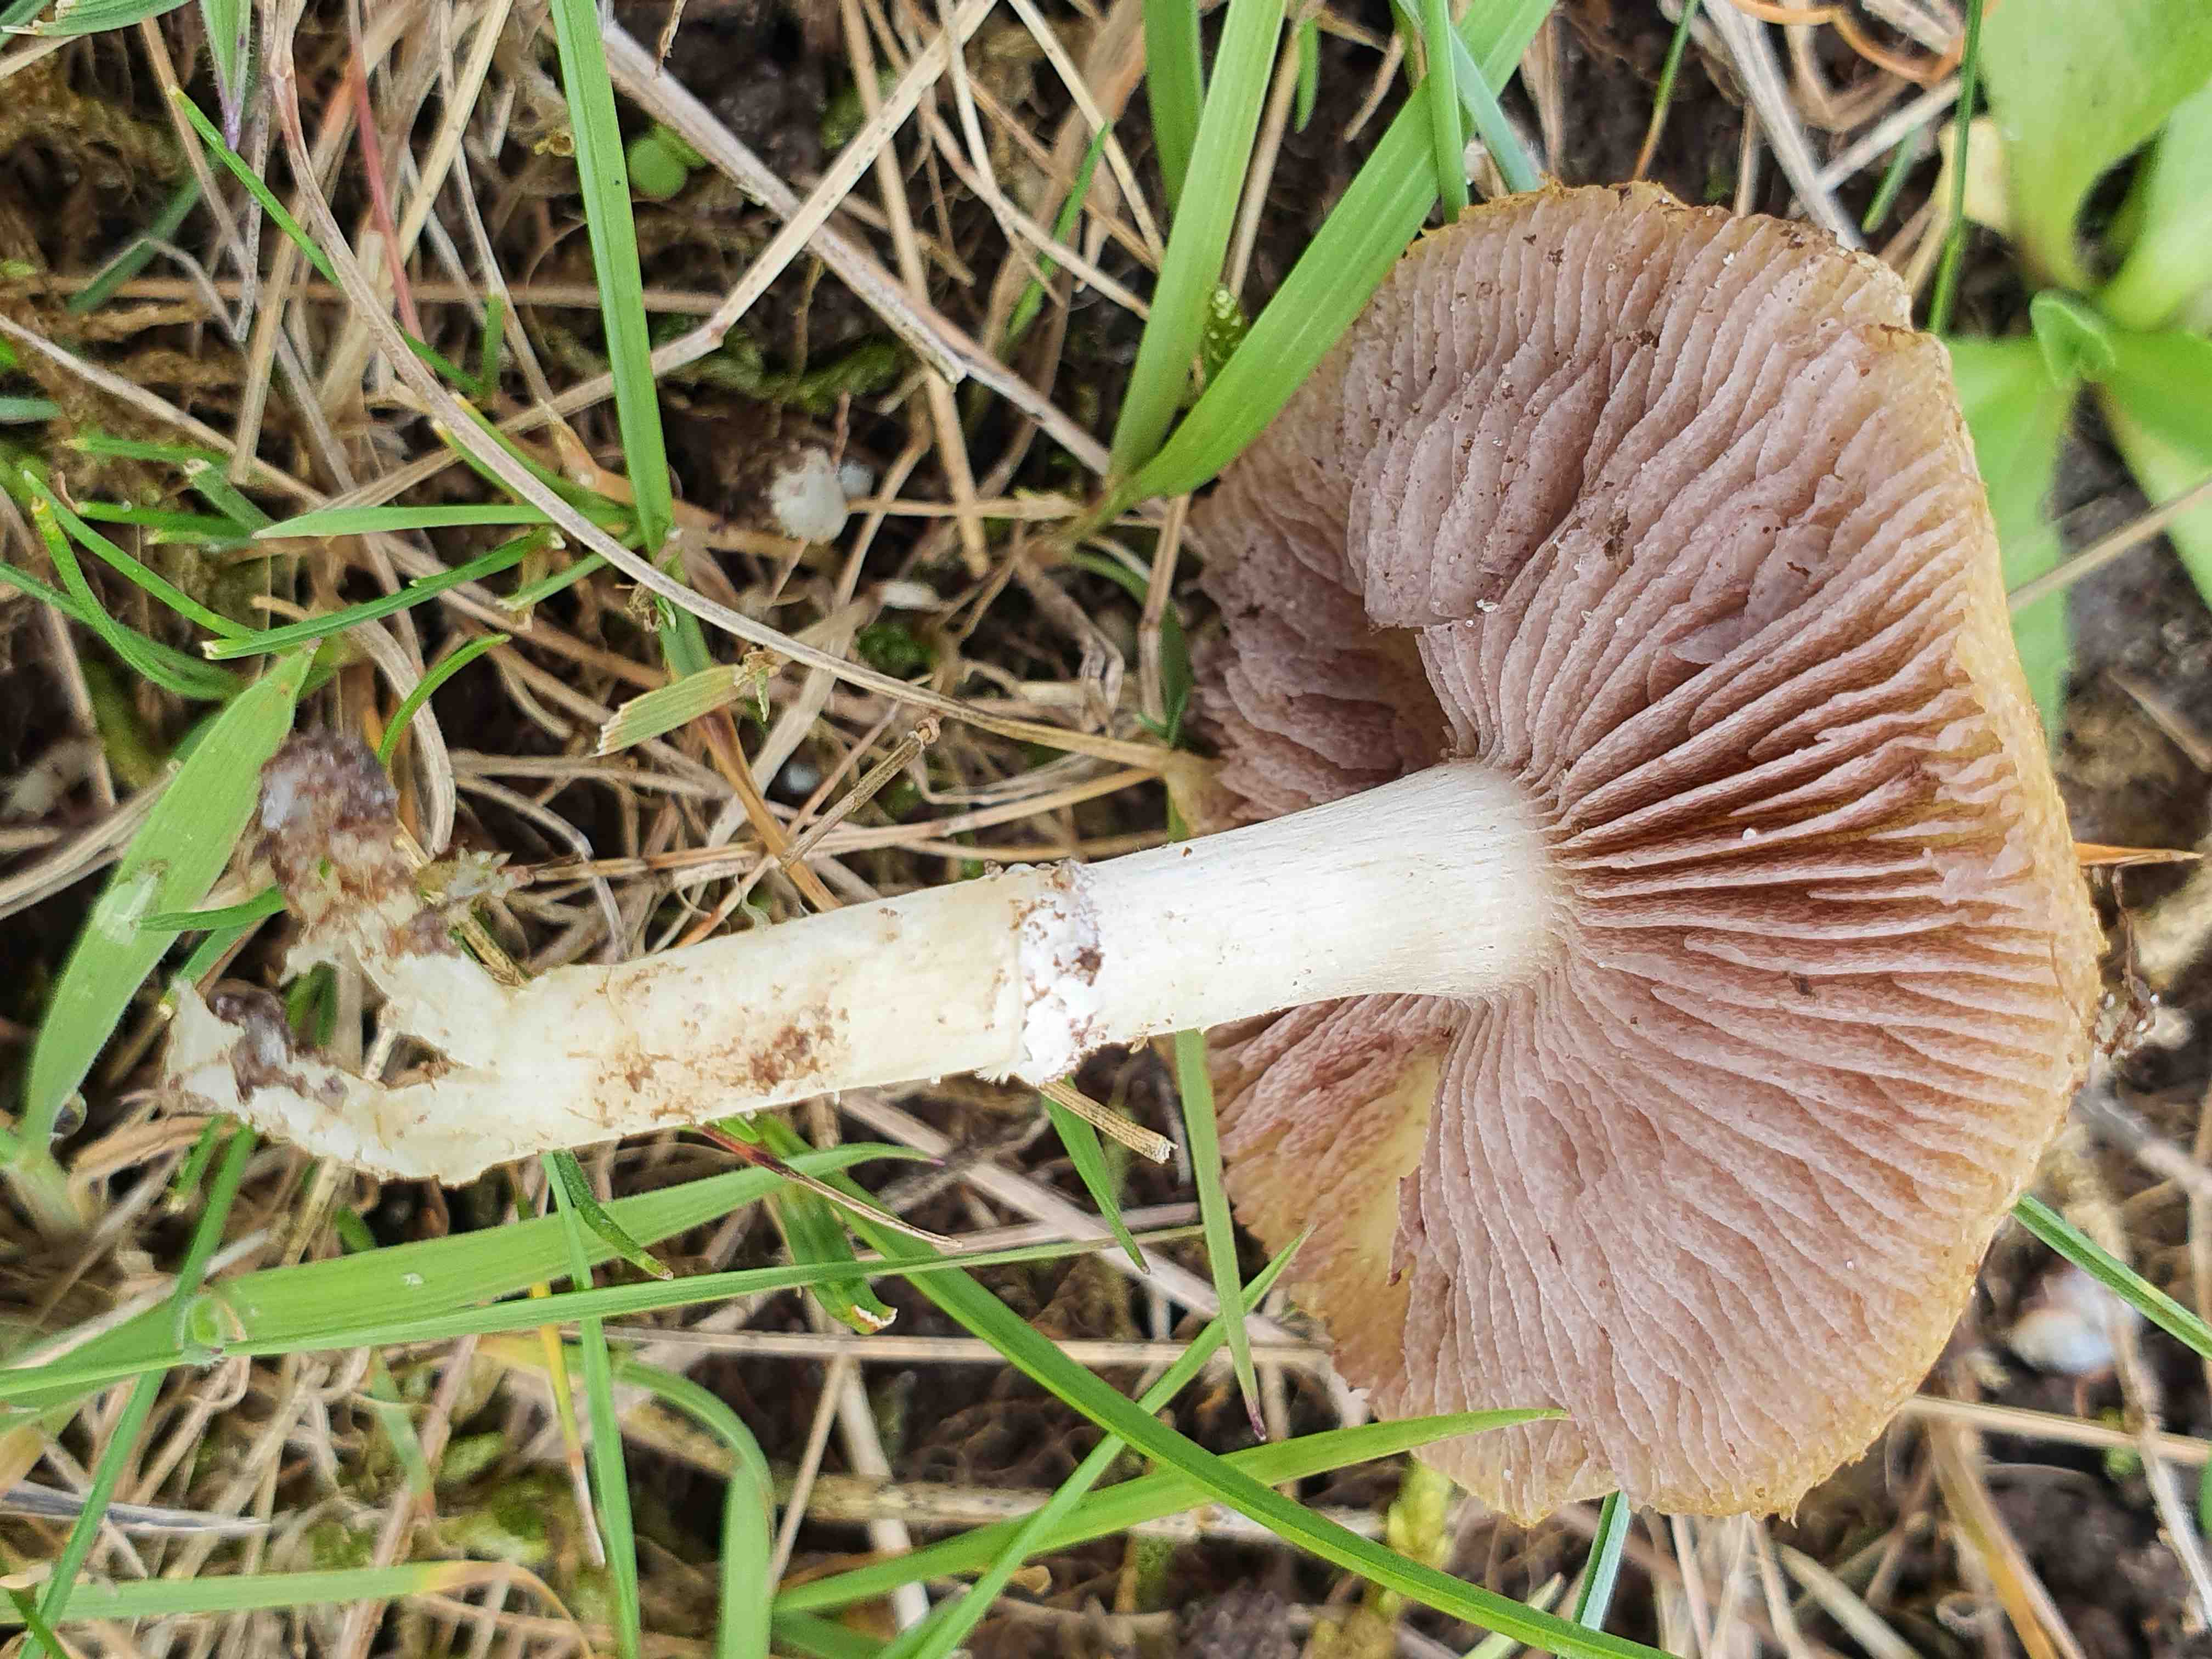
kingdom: Fungi
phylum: Basidiomycota
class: Agaricomycetes
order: Agaricales
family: Hymenogastraceae
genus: Psilocybe
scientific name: Psilocybe coronilla
